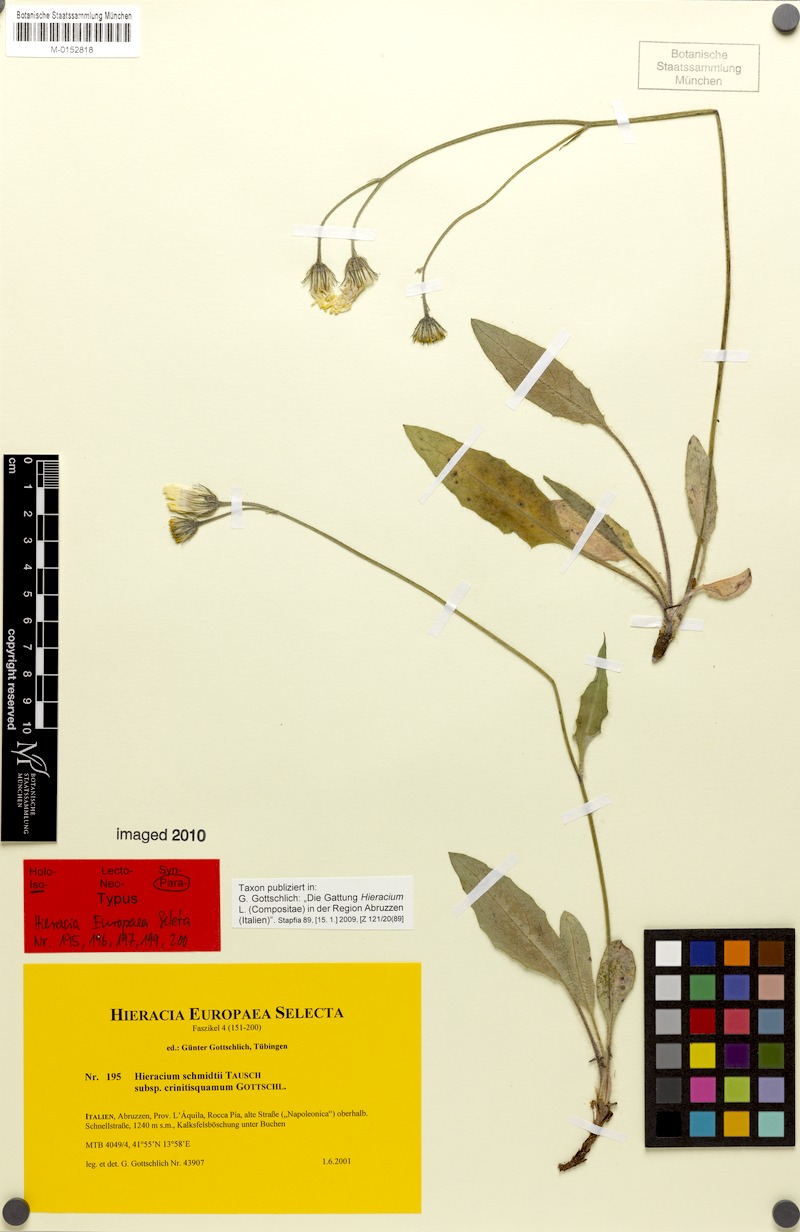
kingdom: Plantae
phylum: Tracheophyta
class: Magnoliopsida
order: Asterales
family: Asteraceae
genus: Hieracium
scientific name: Hieracium schmidtii
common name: Schmidt's hawkweed
